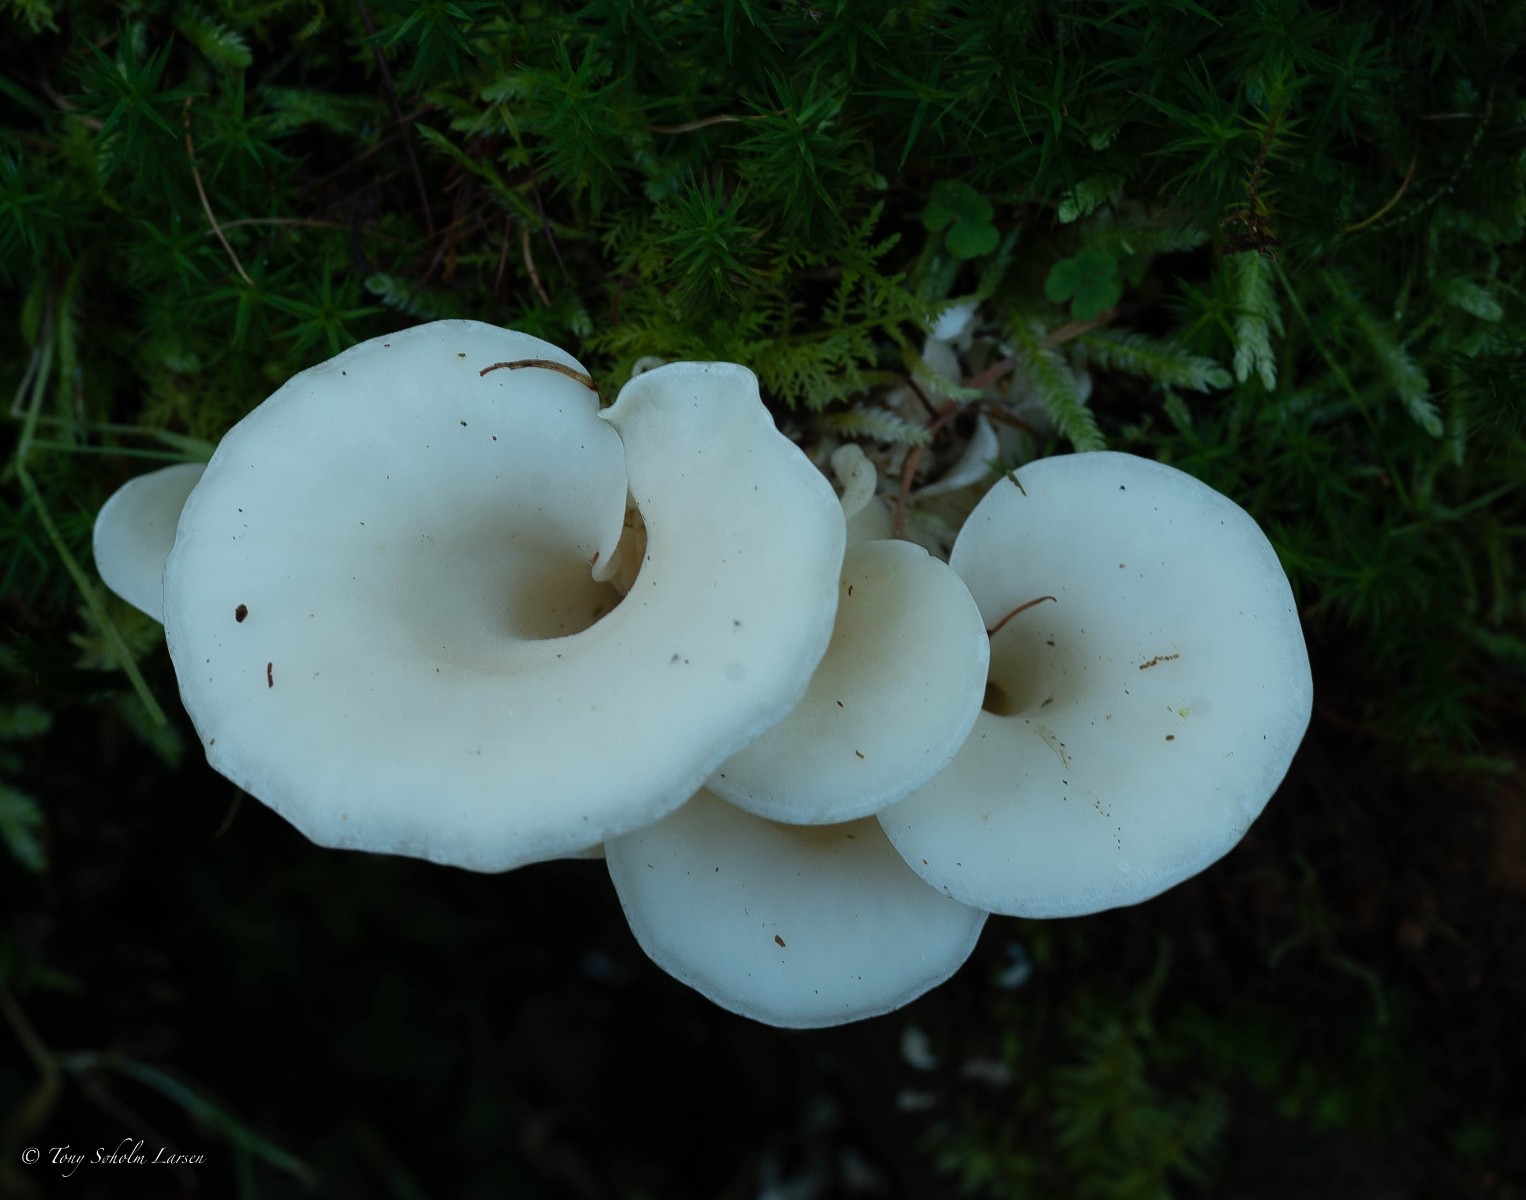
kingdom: Fungi
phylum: Basidiomycota
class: Agaricomycetes
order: Agaricales
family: Marasmiaceae
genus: Pleurocybella
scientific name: Pleurocybella porrigens
